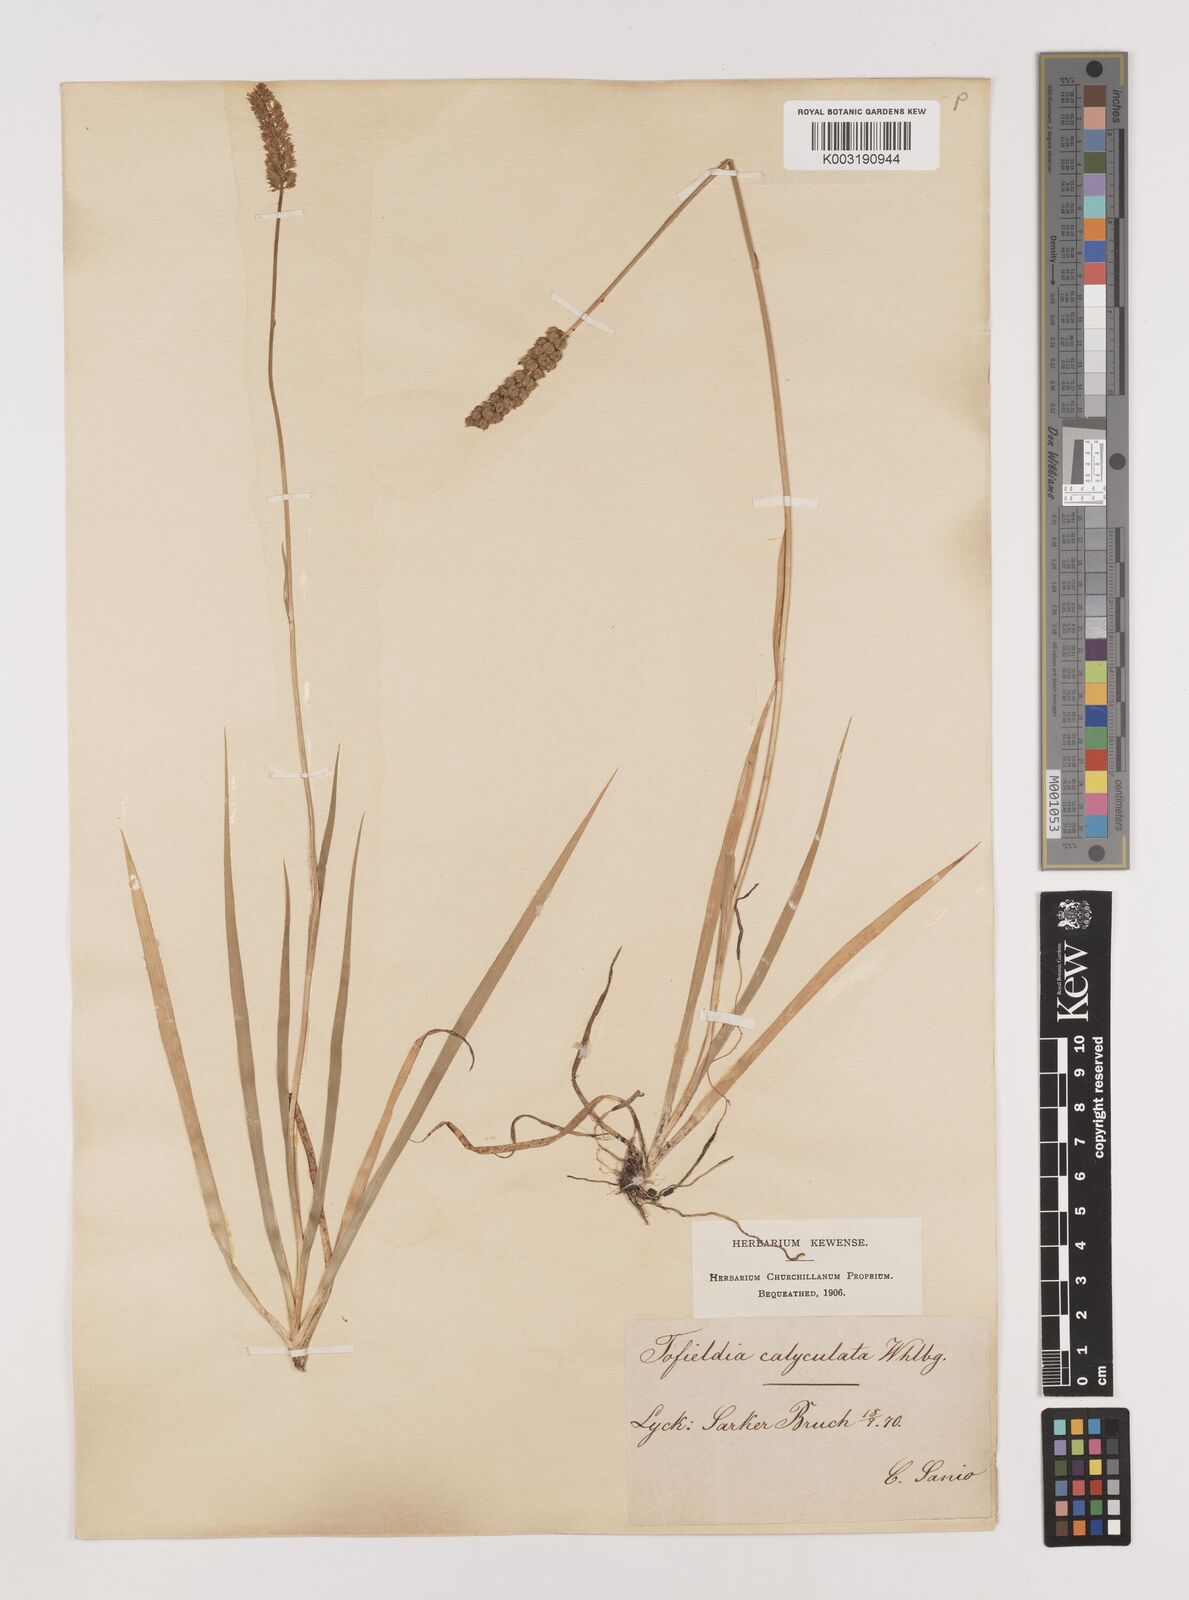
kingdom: Plantae
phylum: Tracheophyta
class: Liliopsida
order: Alismatales
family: Tofieldiaceae
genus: Tofieldia
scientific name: Tofieldia calyculata
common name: German-asphodel
